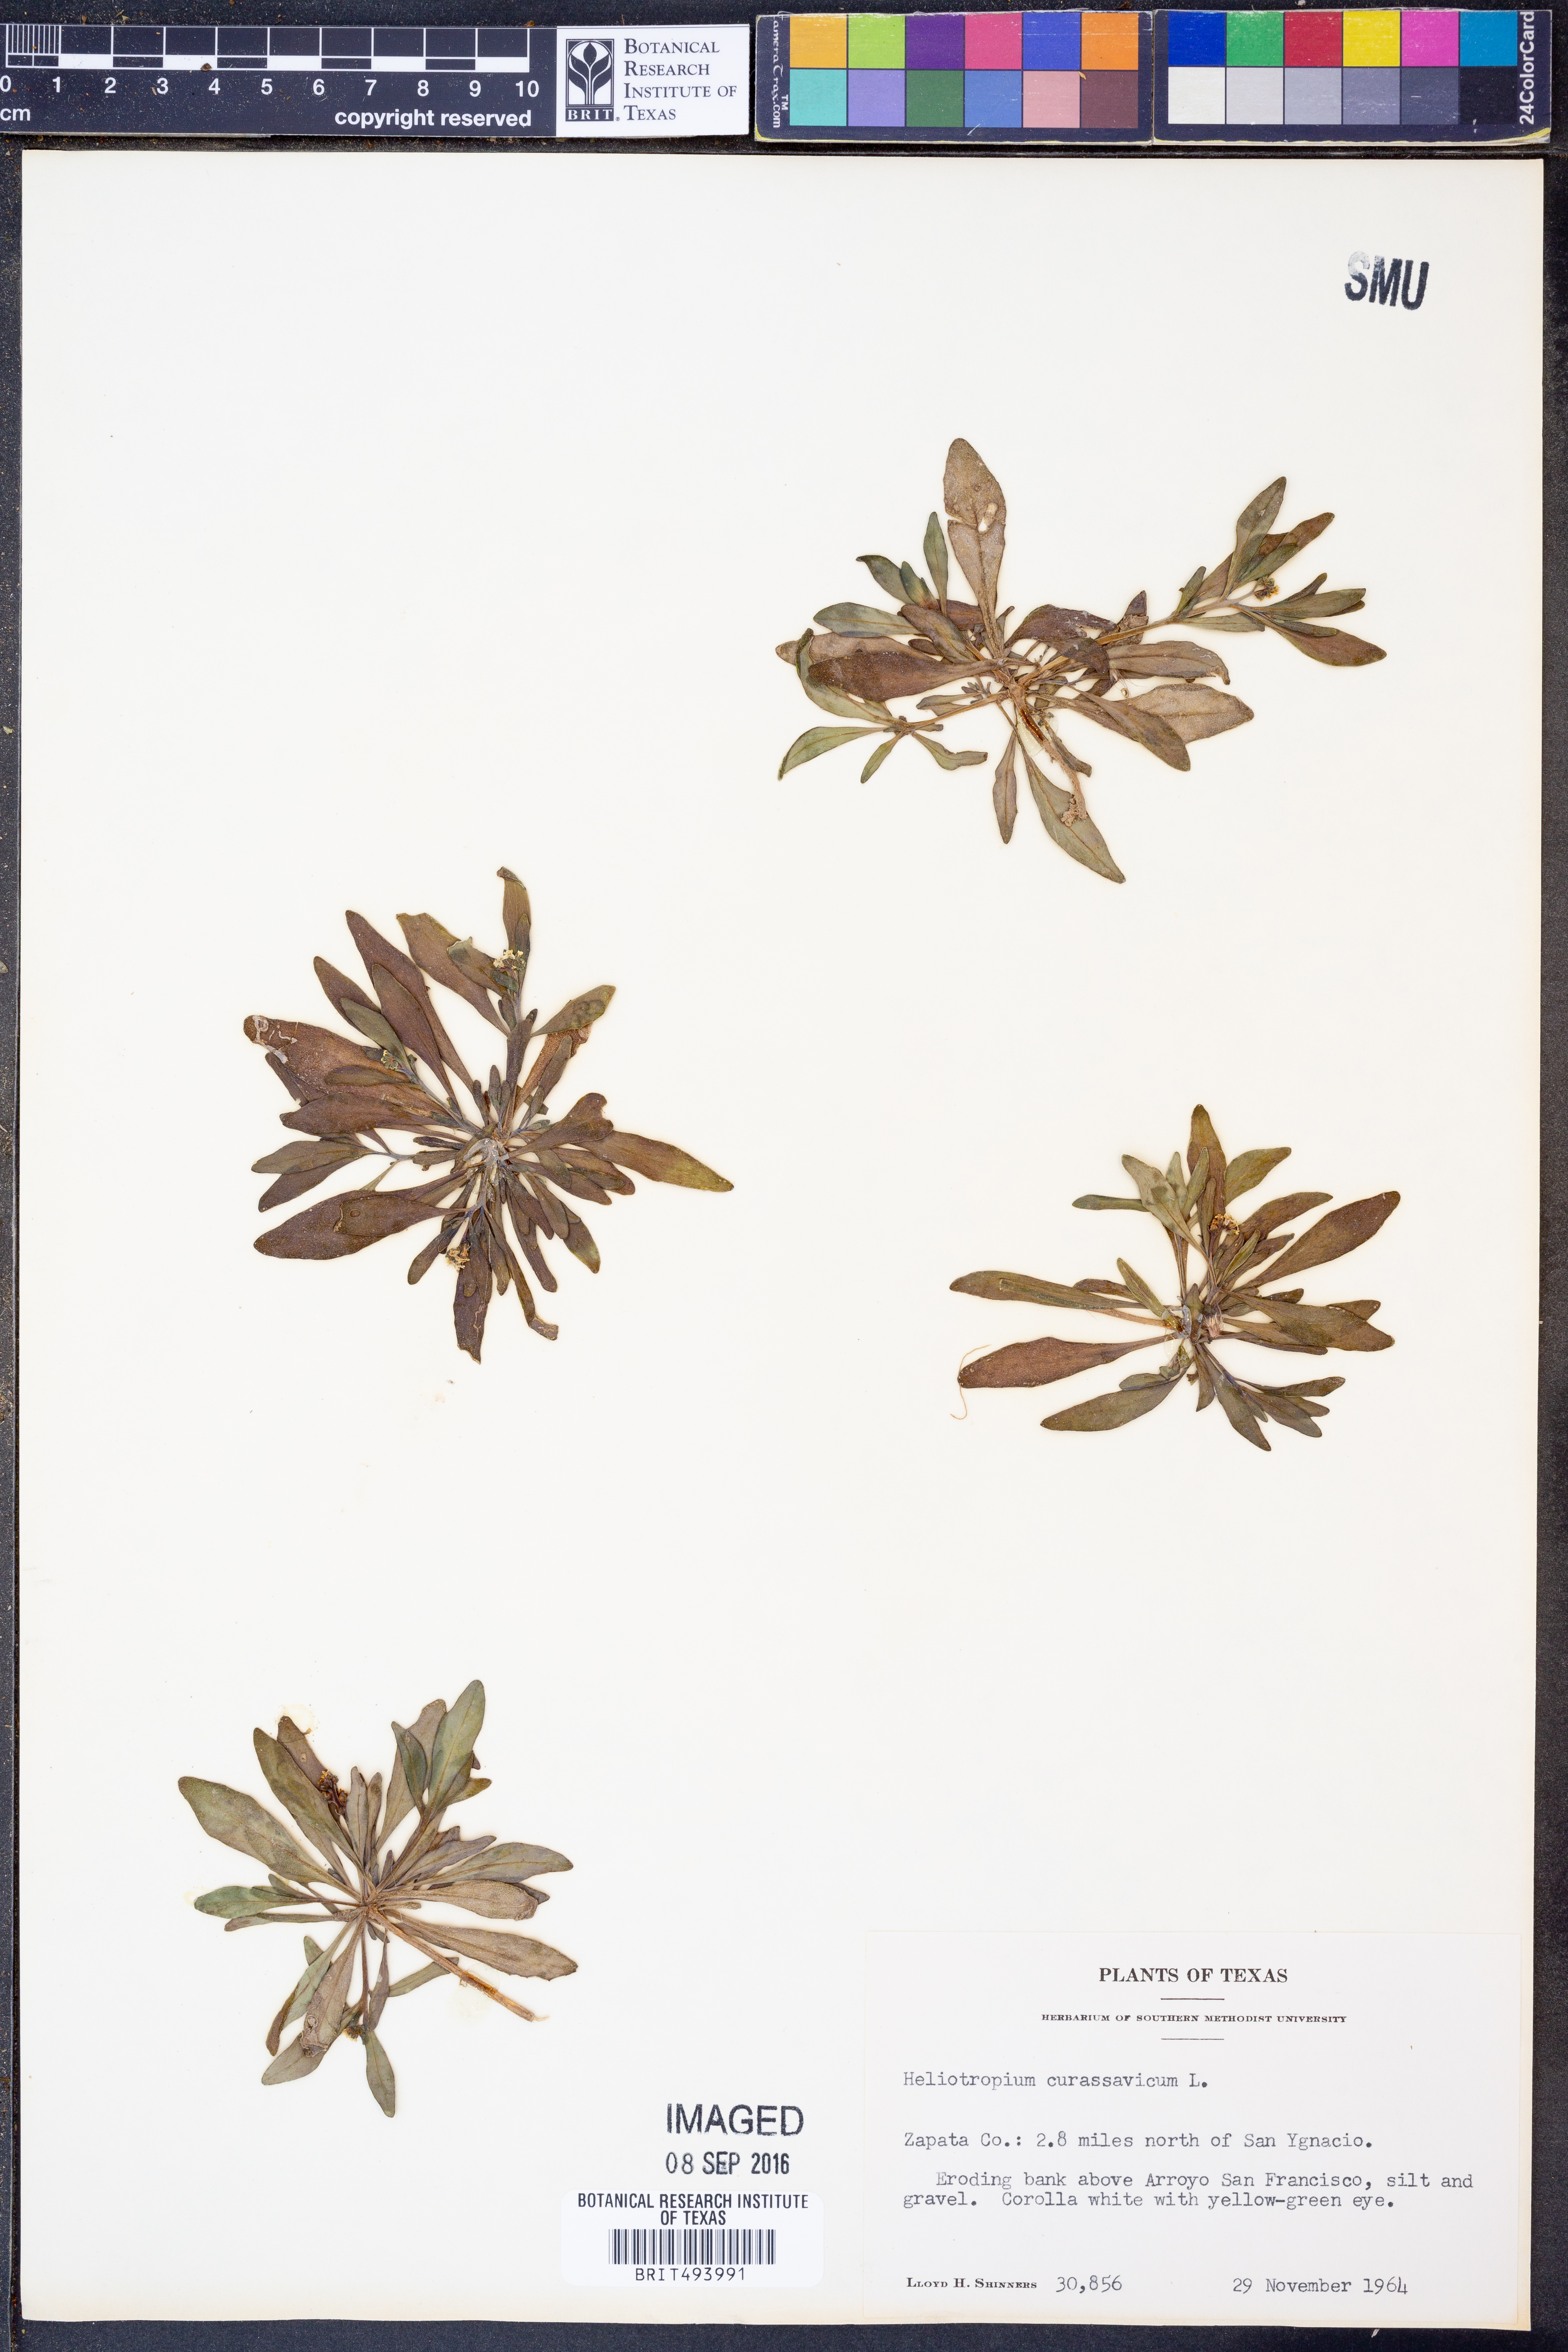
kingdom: Plantae
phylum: Tracheophyta
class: Magnoliopsida
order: Boraginales
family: Heliotropiaceae
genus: Heliotropium
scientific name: Heliotropium curassavicum
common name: Seaside heliotrope
